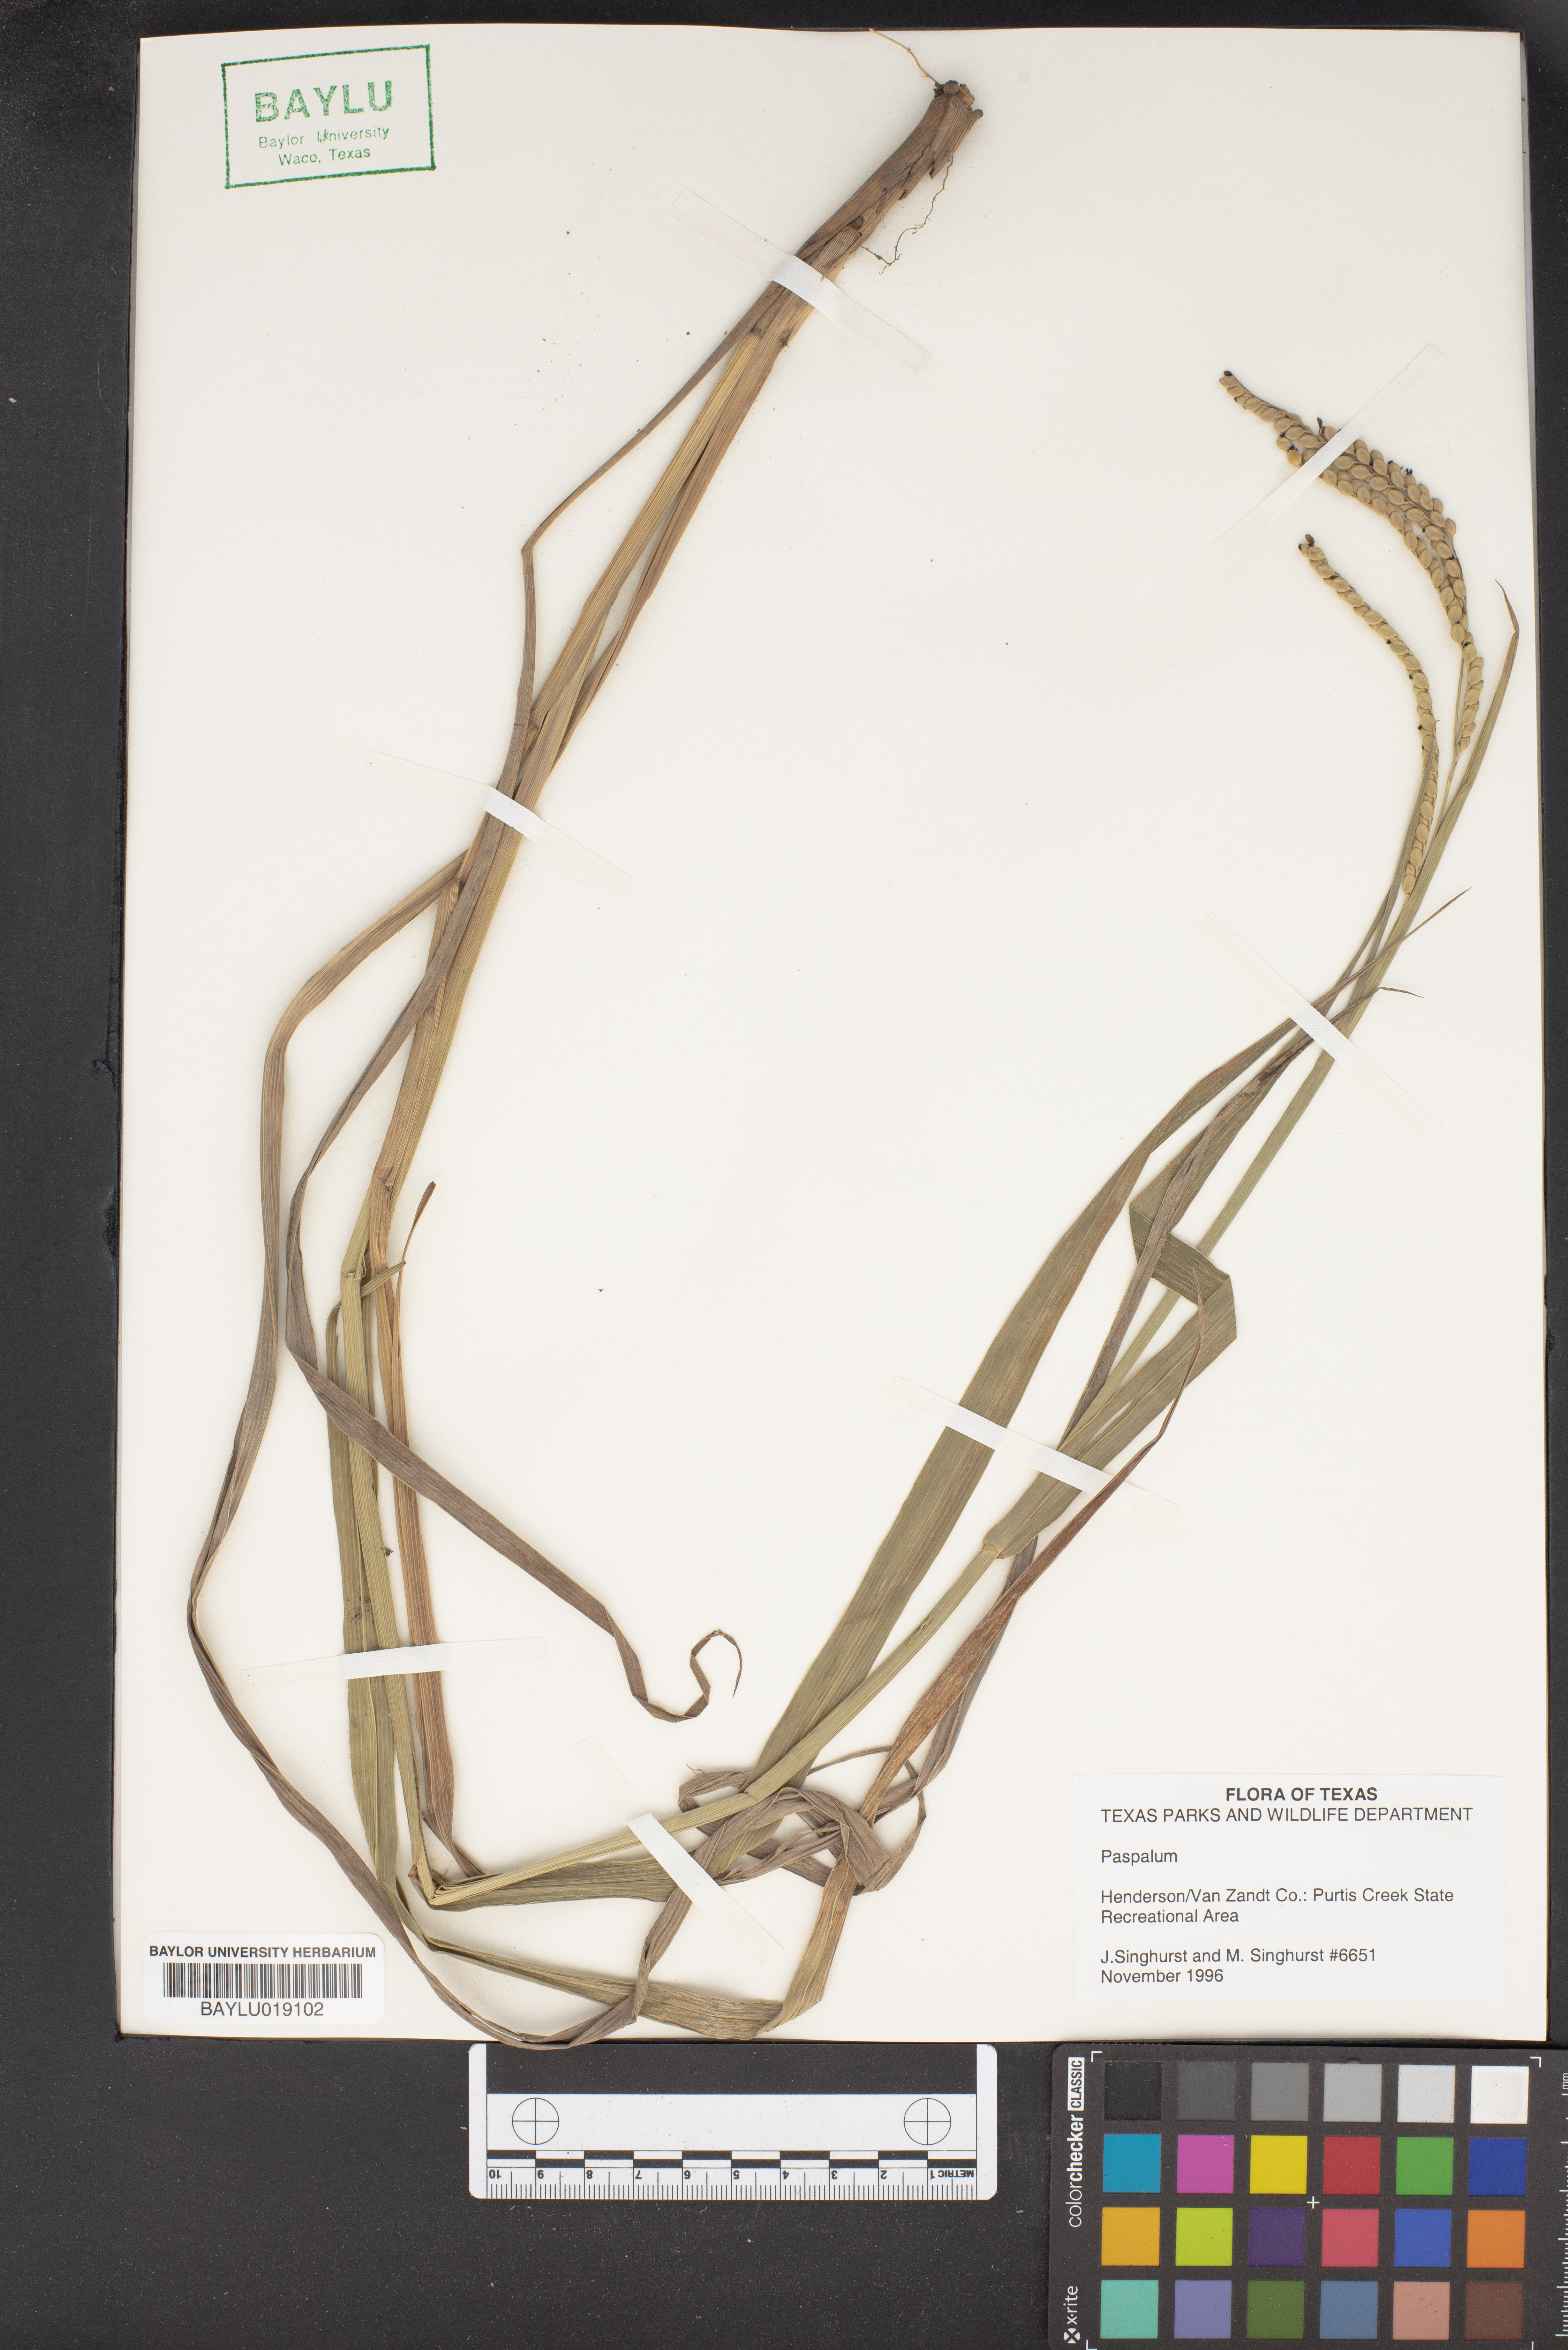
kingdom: Plantae
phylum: Tracheophyta
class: Liliopsida
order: Poales
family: Poaceae
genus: Paspalum
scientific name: Paspalum
